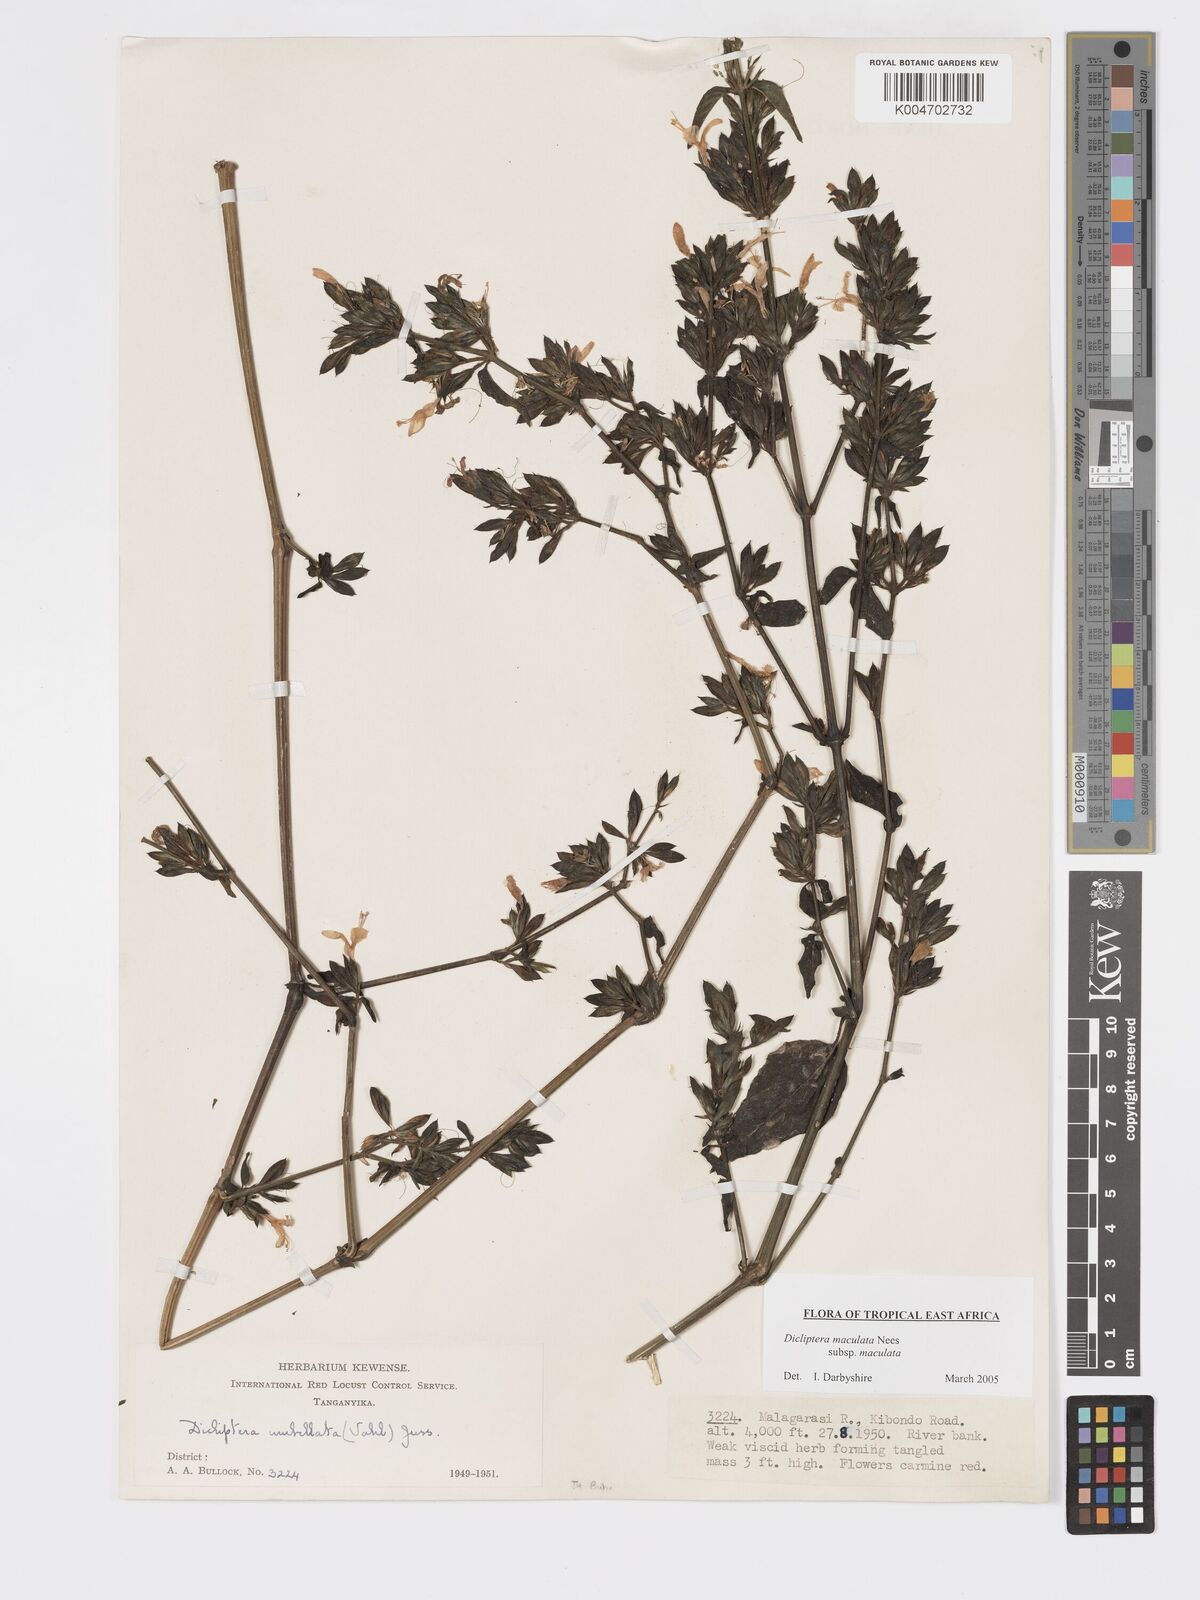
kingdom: Plantae
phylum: Tracheophyta
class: Magnoliopsida
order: Lamiales
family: Acanthaceae
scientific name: Acanthaceae
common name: Acanthaceae
